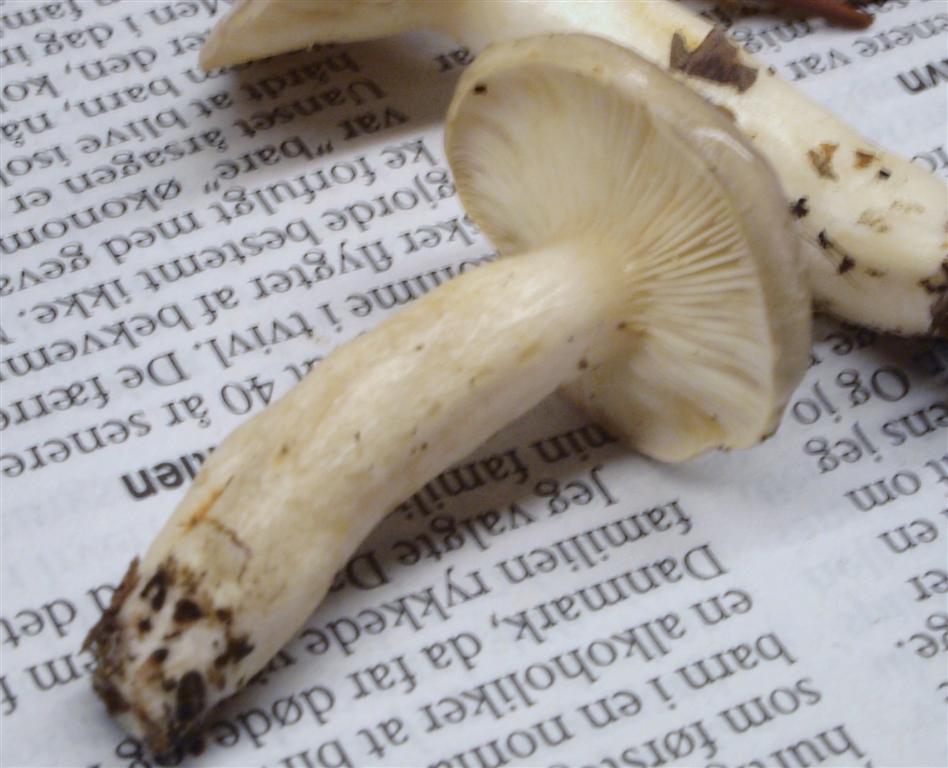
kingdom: Fungi
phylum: Basidiomycota
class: Agaricomycetes
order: Russulales
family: Russulaceae
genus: Lactarius
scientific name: Lactarius albocarneus
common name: ædelgran-mælkehat
